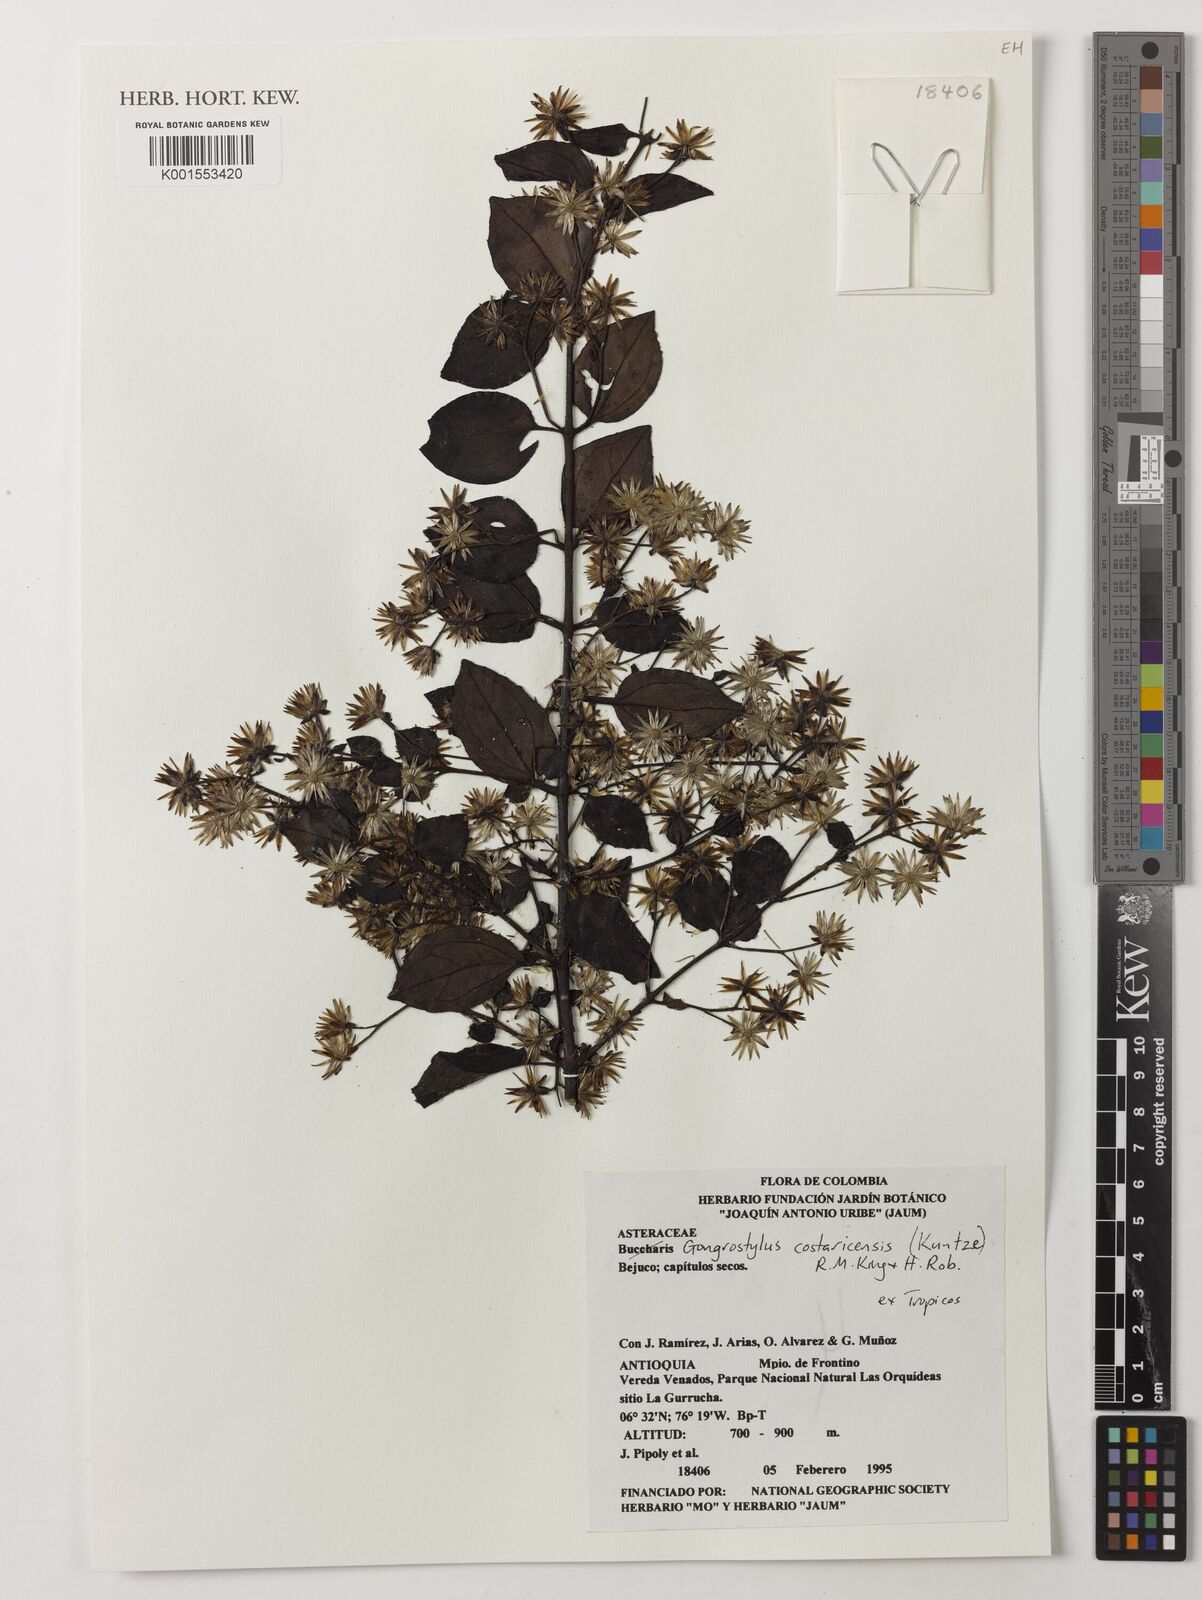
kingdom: Plantae
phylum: Tracheophyta
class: Magnoliopsida
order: Asterales
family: Asteraceae
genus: Gongrostylus
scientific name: Gongrostylus costaricensis
